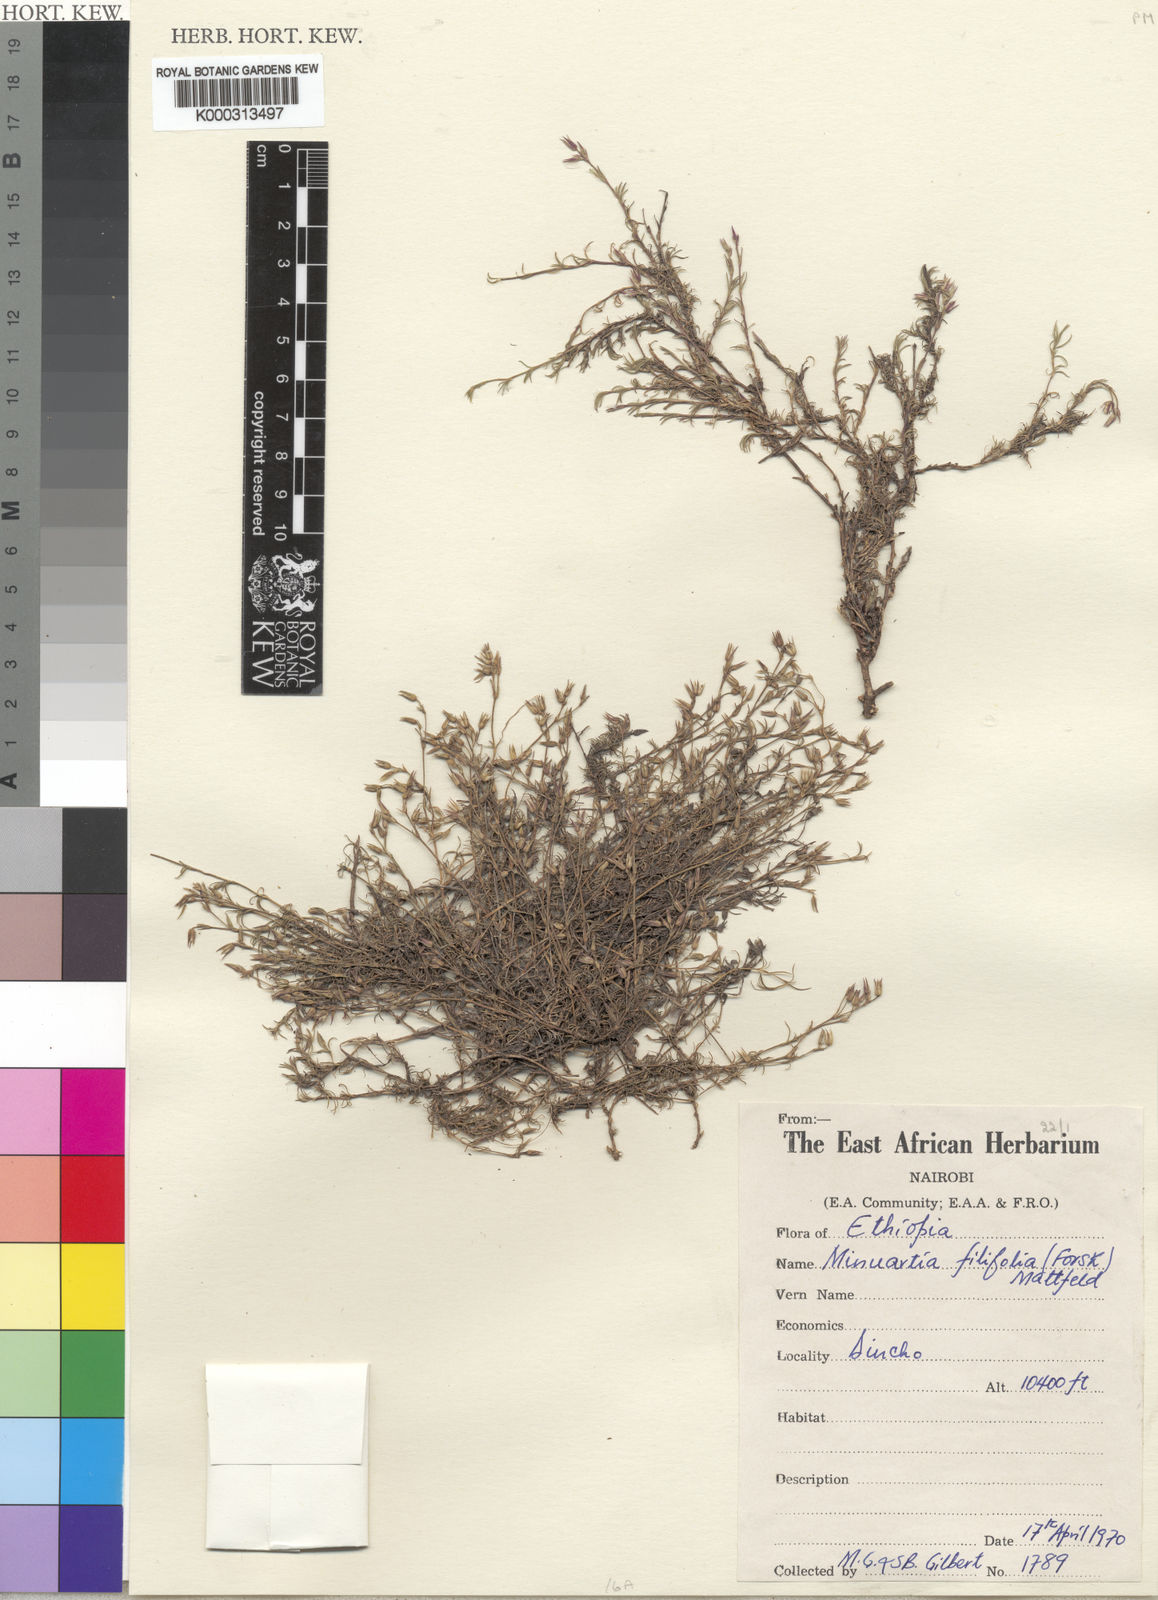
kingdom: Plantae
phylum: Tracheophyta
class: Magnoliopsida
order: Caryophyllales
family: Caryophyllaceae
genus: Minuartia
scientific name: Minuartia filifolia
